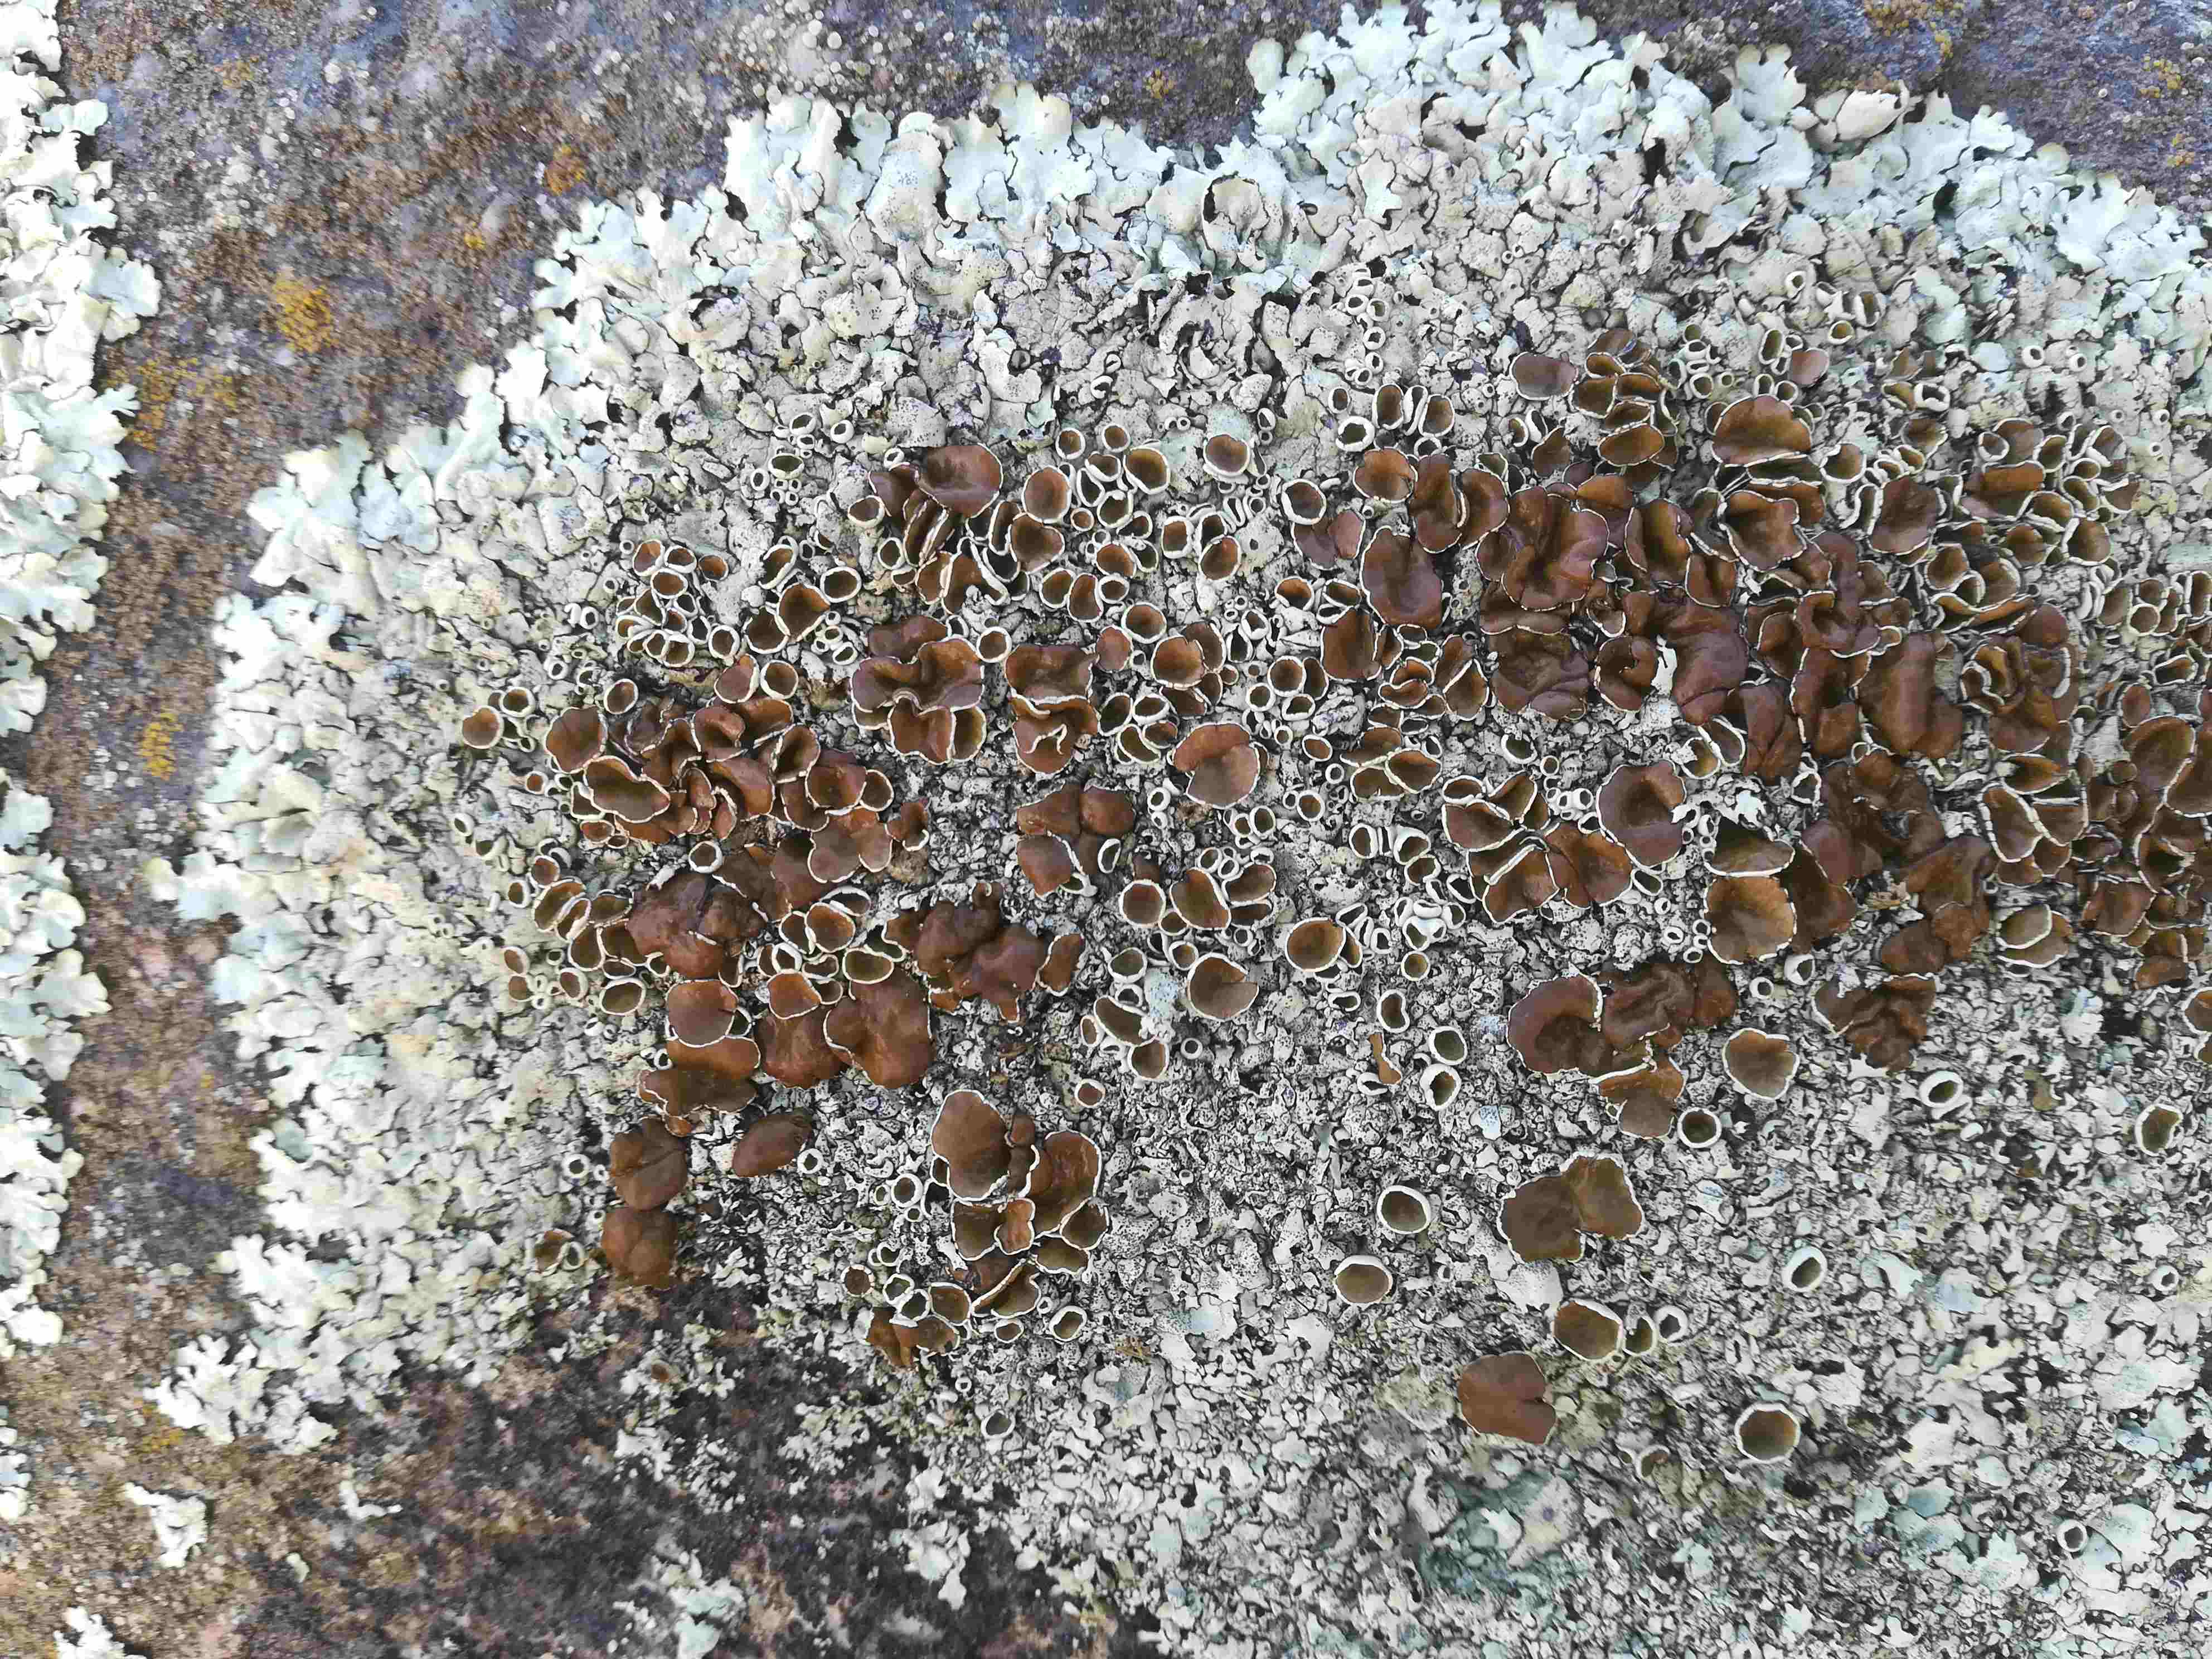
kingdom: Fungi
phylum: Ascomycota
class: Lecanoromycetes
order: Lecanorales
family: Parmeliaceae
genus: Xanthoparmelia
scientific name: Xanthoparmelia stenophylla
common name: Shingled rock shield
